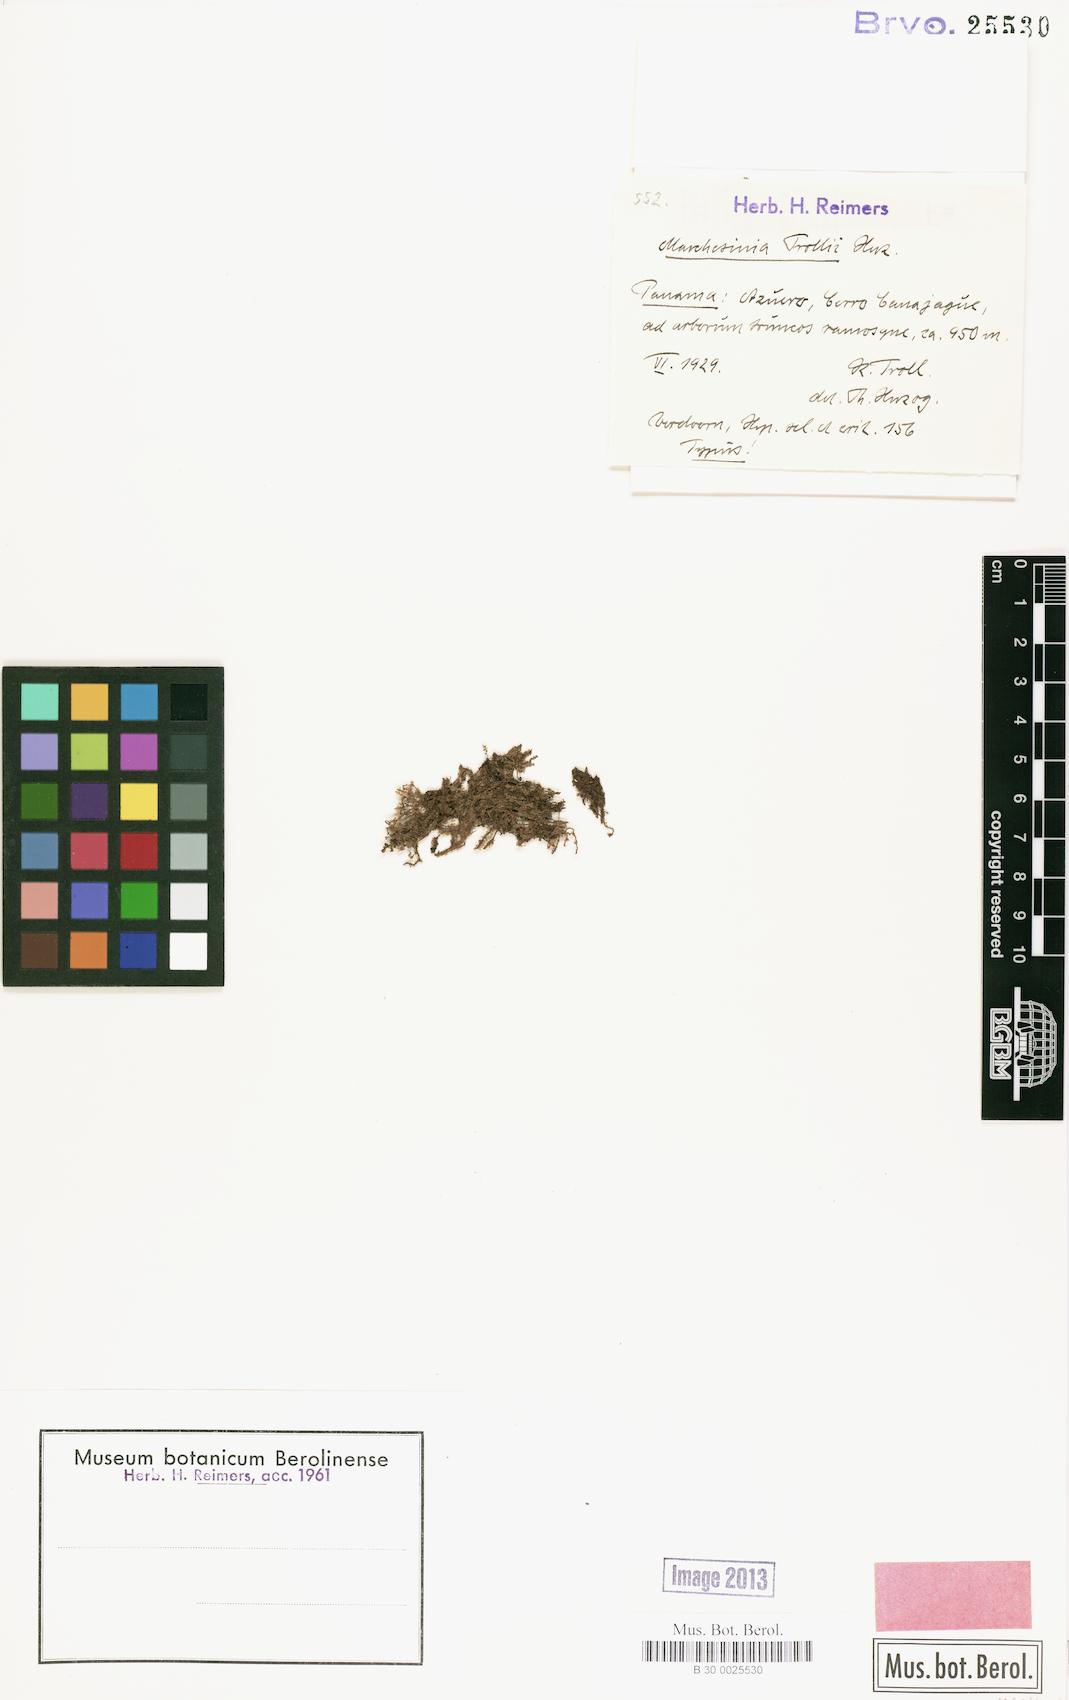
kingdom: Plantae
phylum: Marchantiophyta
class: Jungermanniopsida
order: Porellales
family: Lejeuneaceae
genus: Marchesinia
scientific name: Marchesinia brachiata
